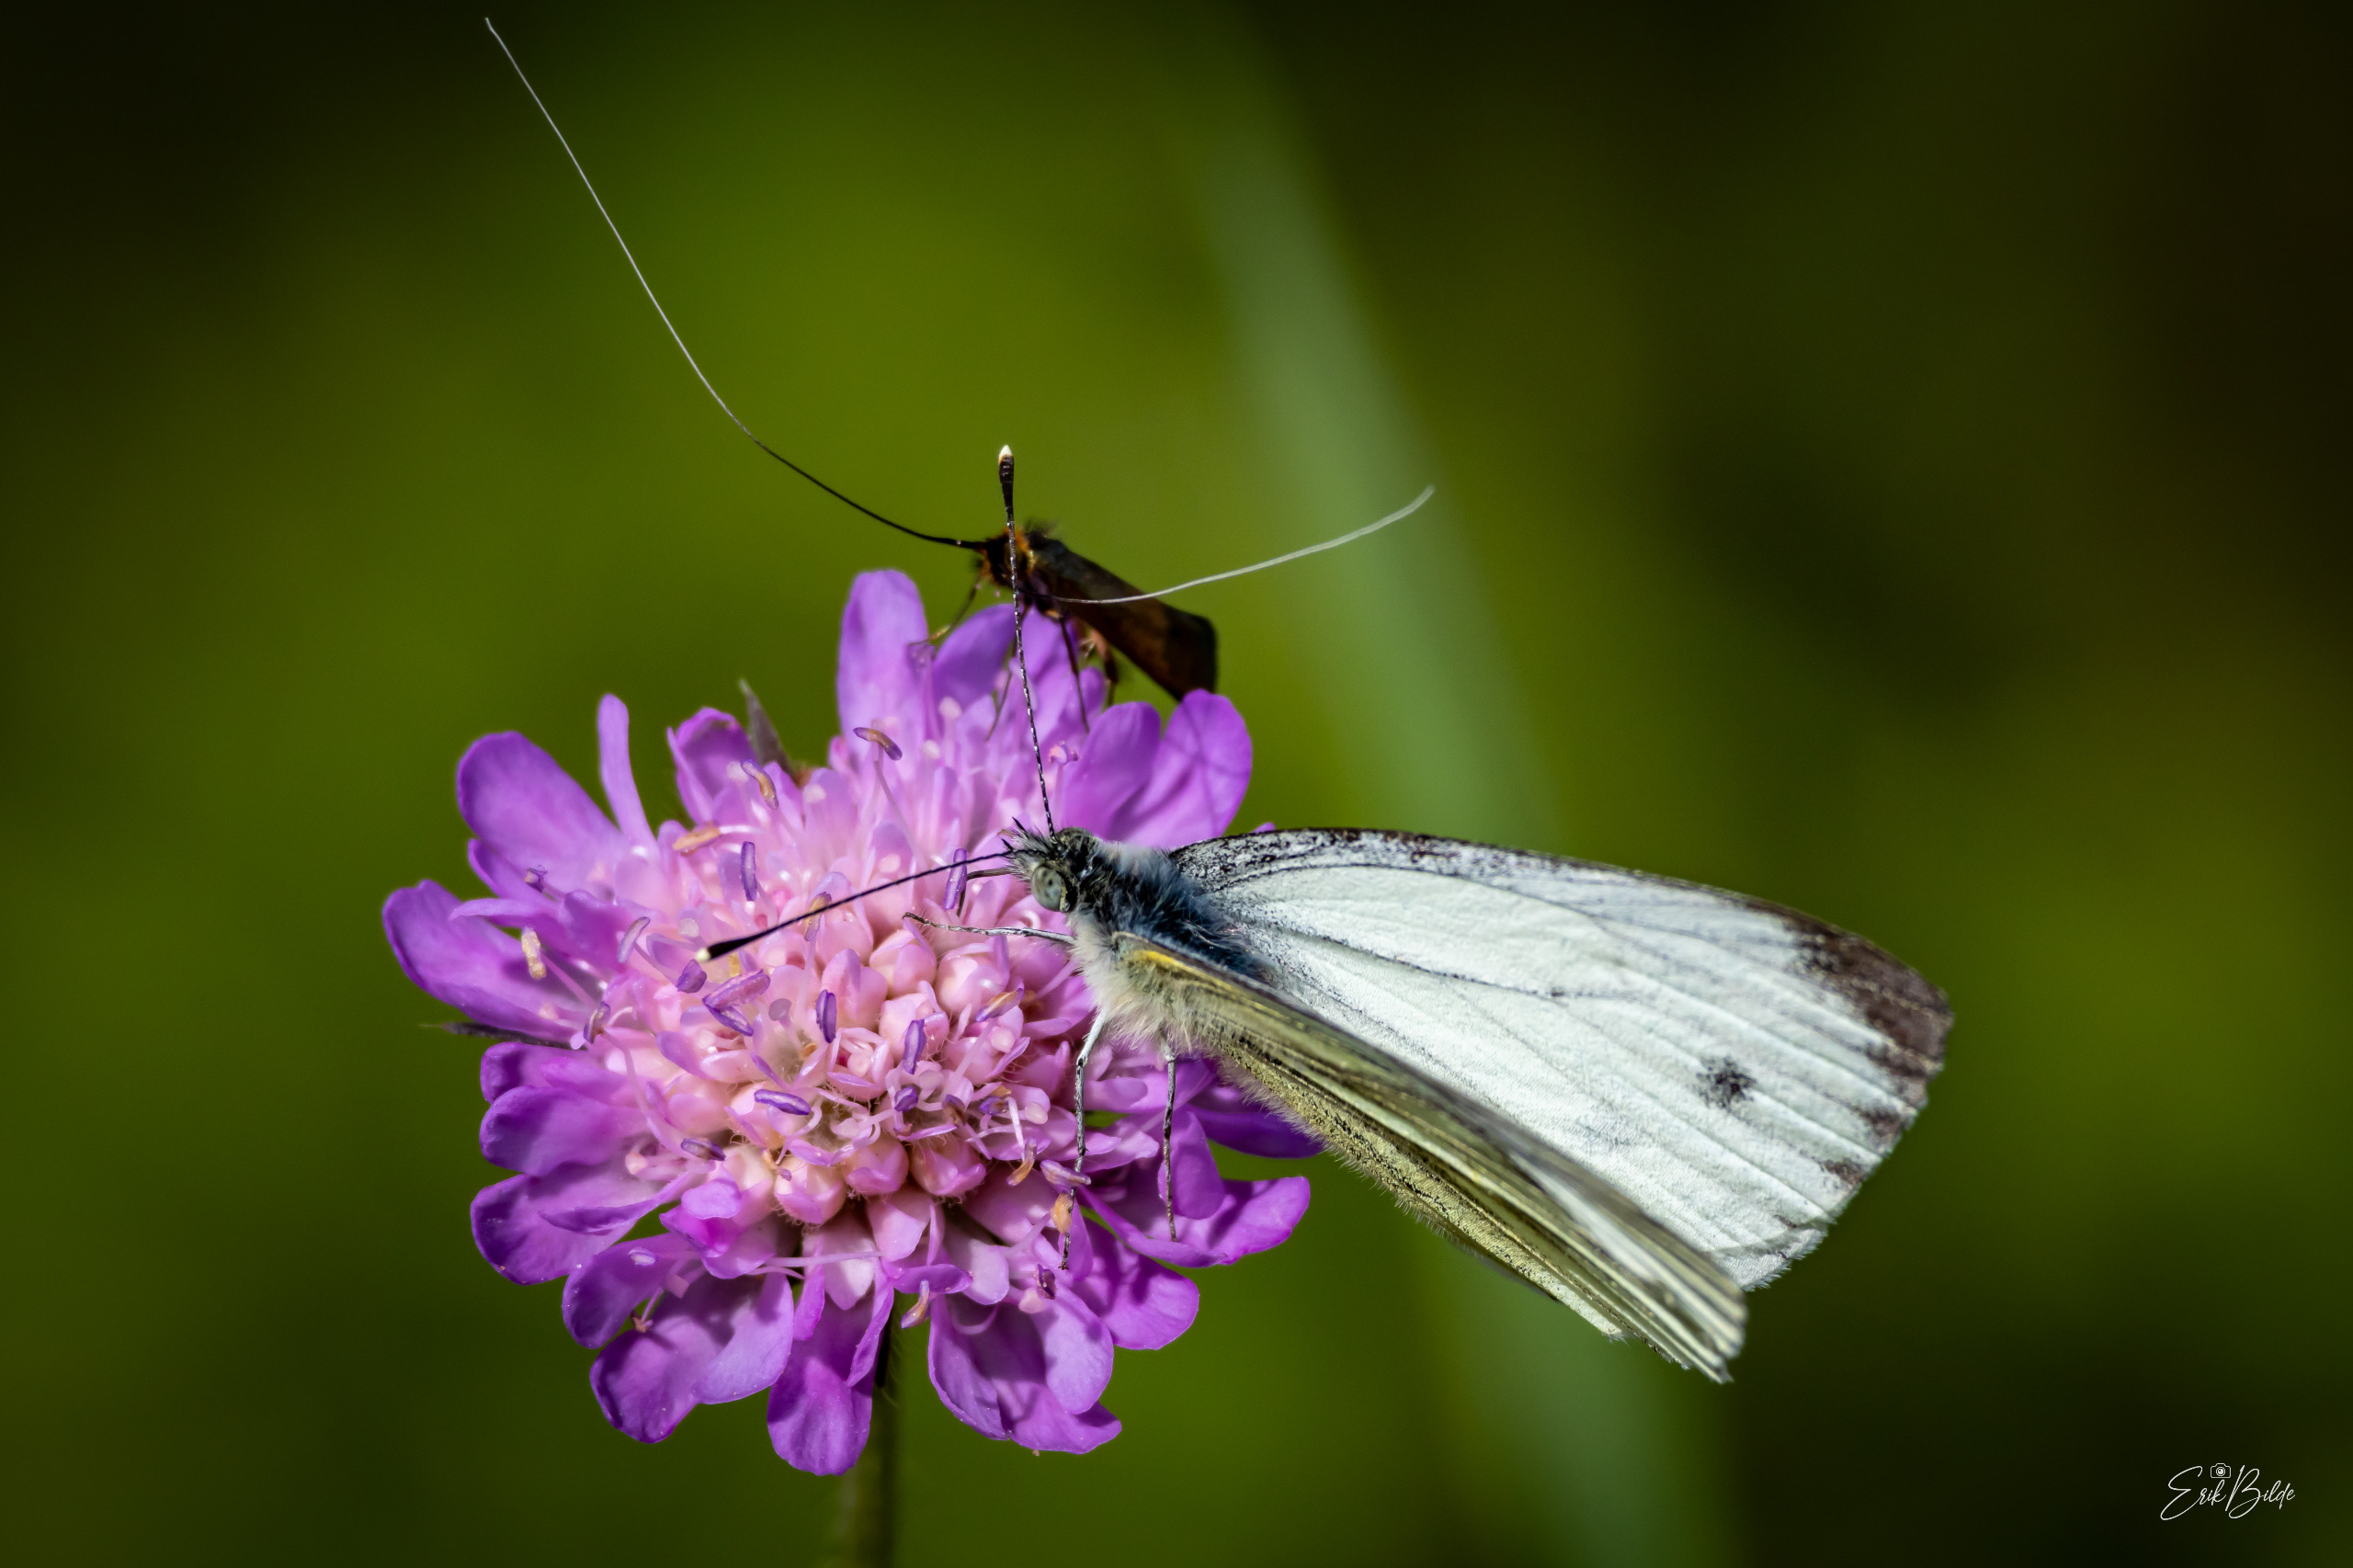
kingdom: Animalia
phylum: Arthropoda
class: Insecta
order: Lepidoptera
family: Pieridae
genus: Pieris
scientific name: Pieris napi
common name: Grønåret kålsommerfugl
